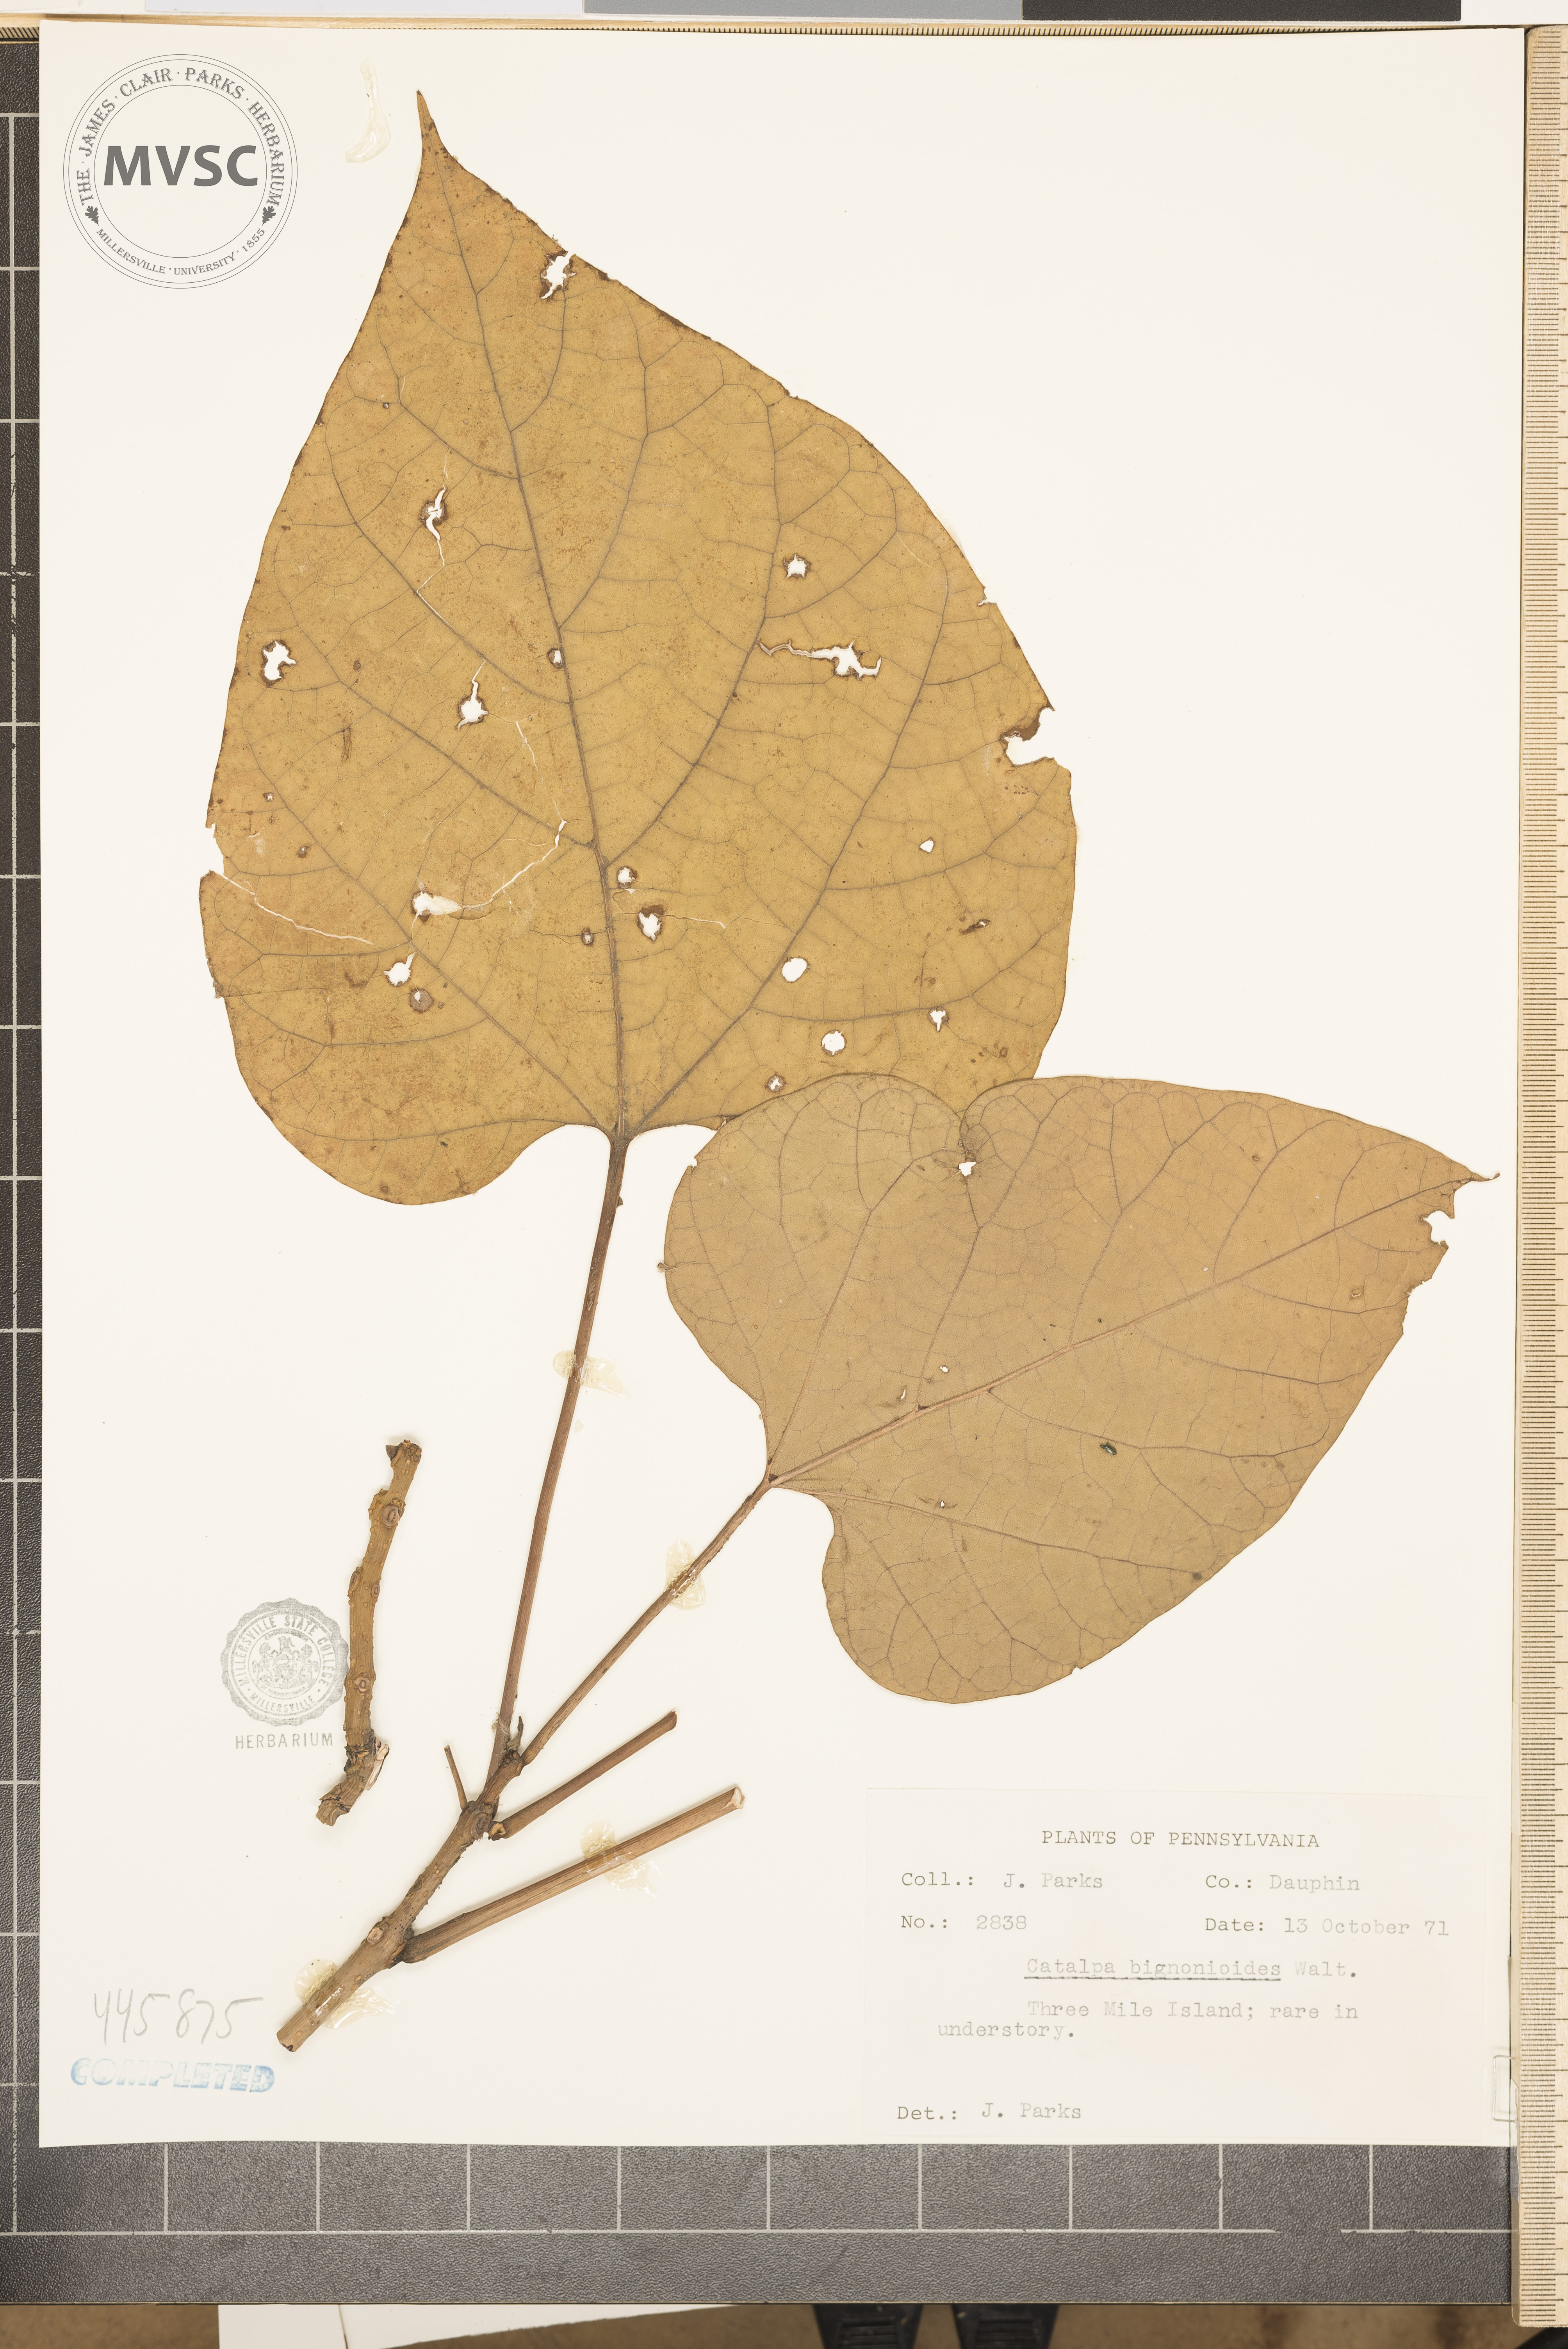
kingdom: Plantae
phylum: Tracheophyta
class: Magnoliopsida
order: Lamiales
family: Bignoniaceae
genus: Catalpa
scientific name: Catalpa bignonioides
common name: Southern catalpa
